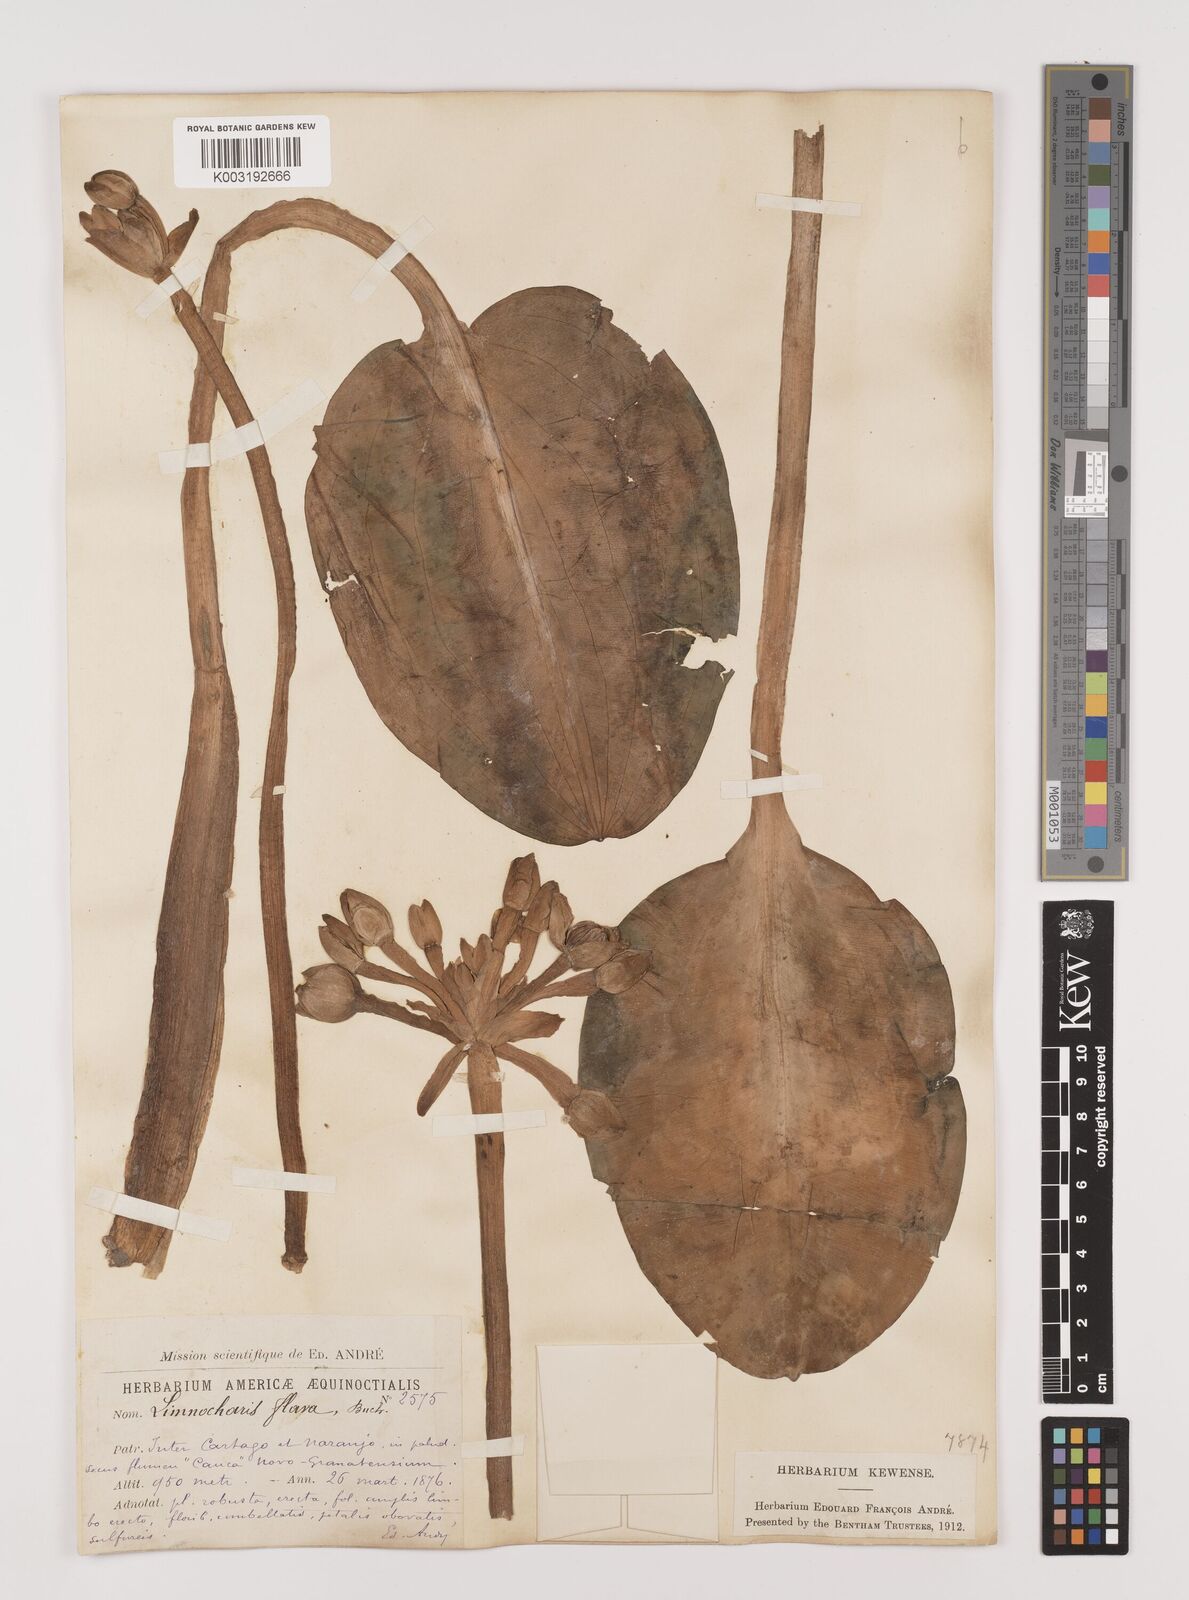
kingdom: Plantae
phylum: Tracheophyta
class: Liliopsida
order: Alismatales
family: Alismataceae
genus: Limnocharis
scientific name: Limnocharis flava
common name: Sawah-flower-rush
